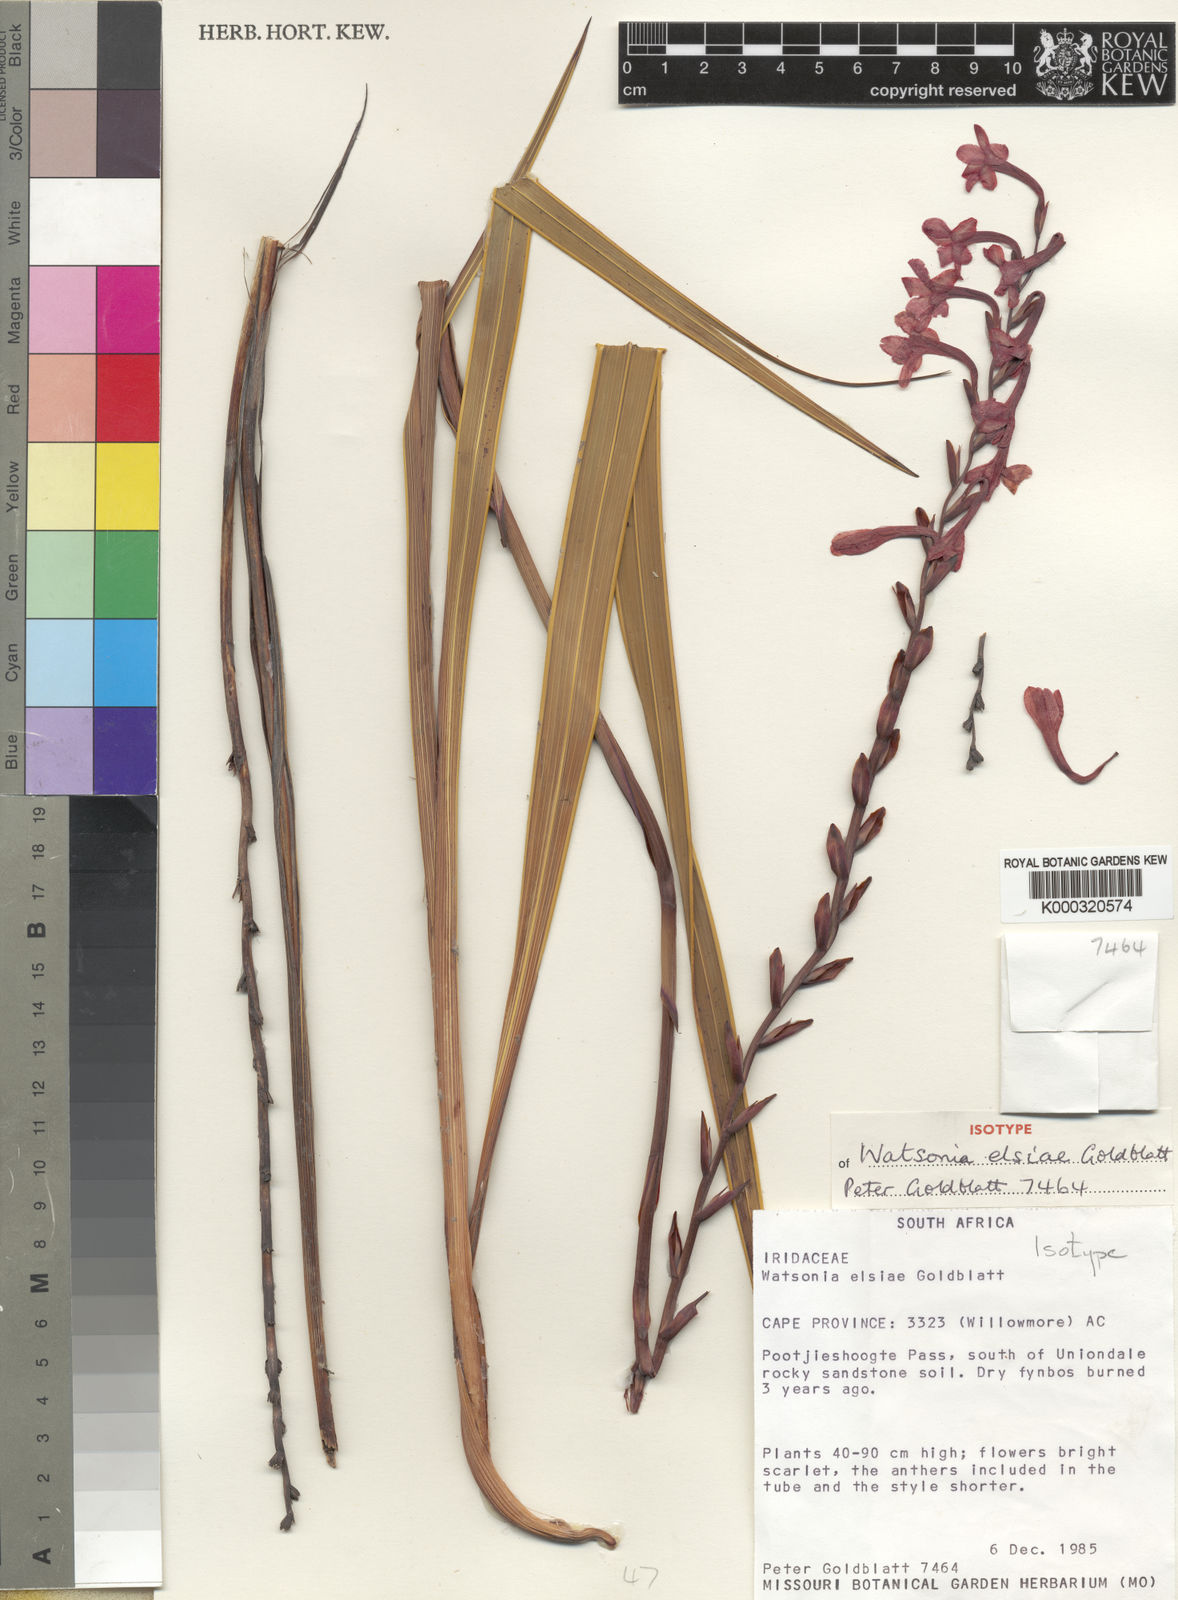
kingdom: Plantae
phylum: Tracheophyta
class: Liliopsida
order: Asparagales
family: Iridaceae
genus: Watsonia
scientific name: Watsonia elsiae
